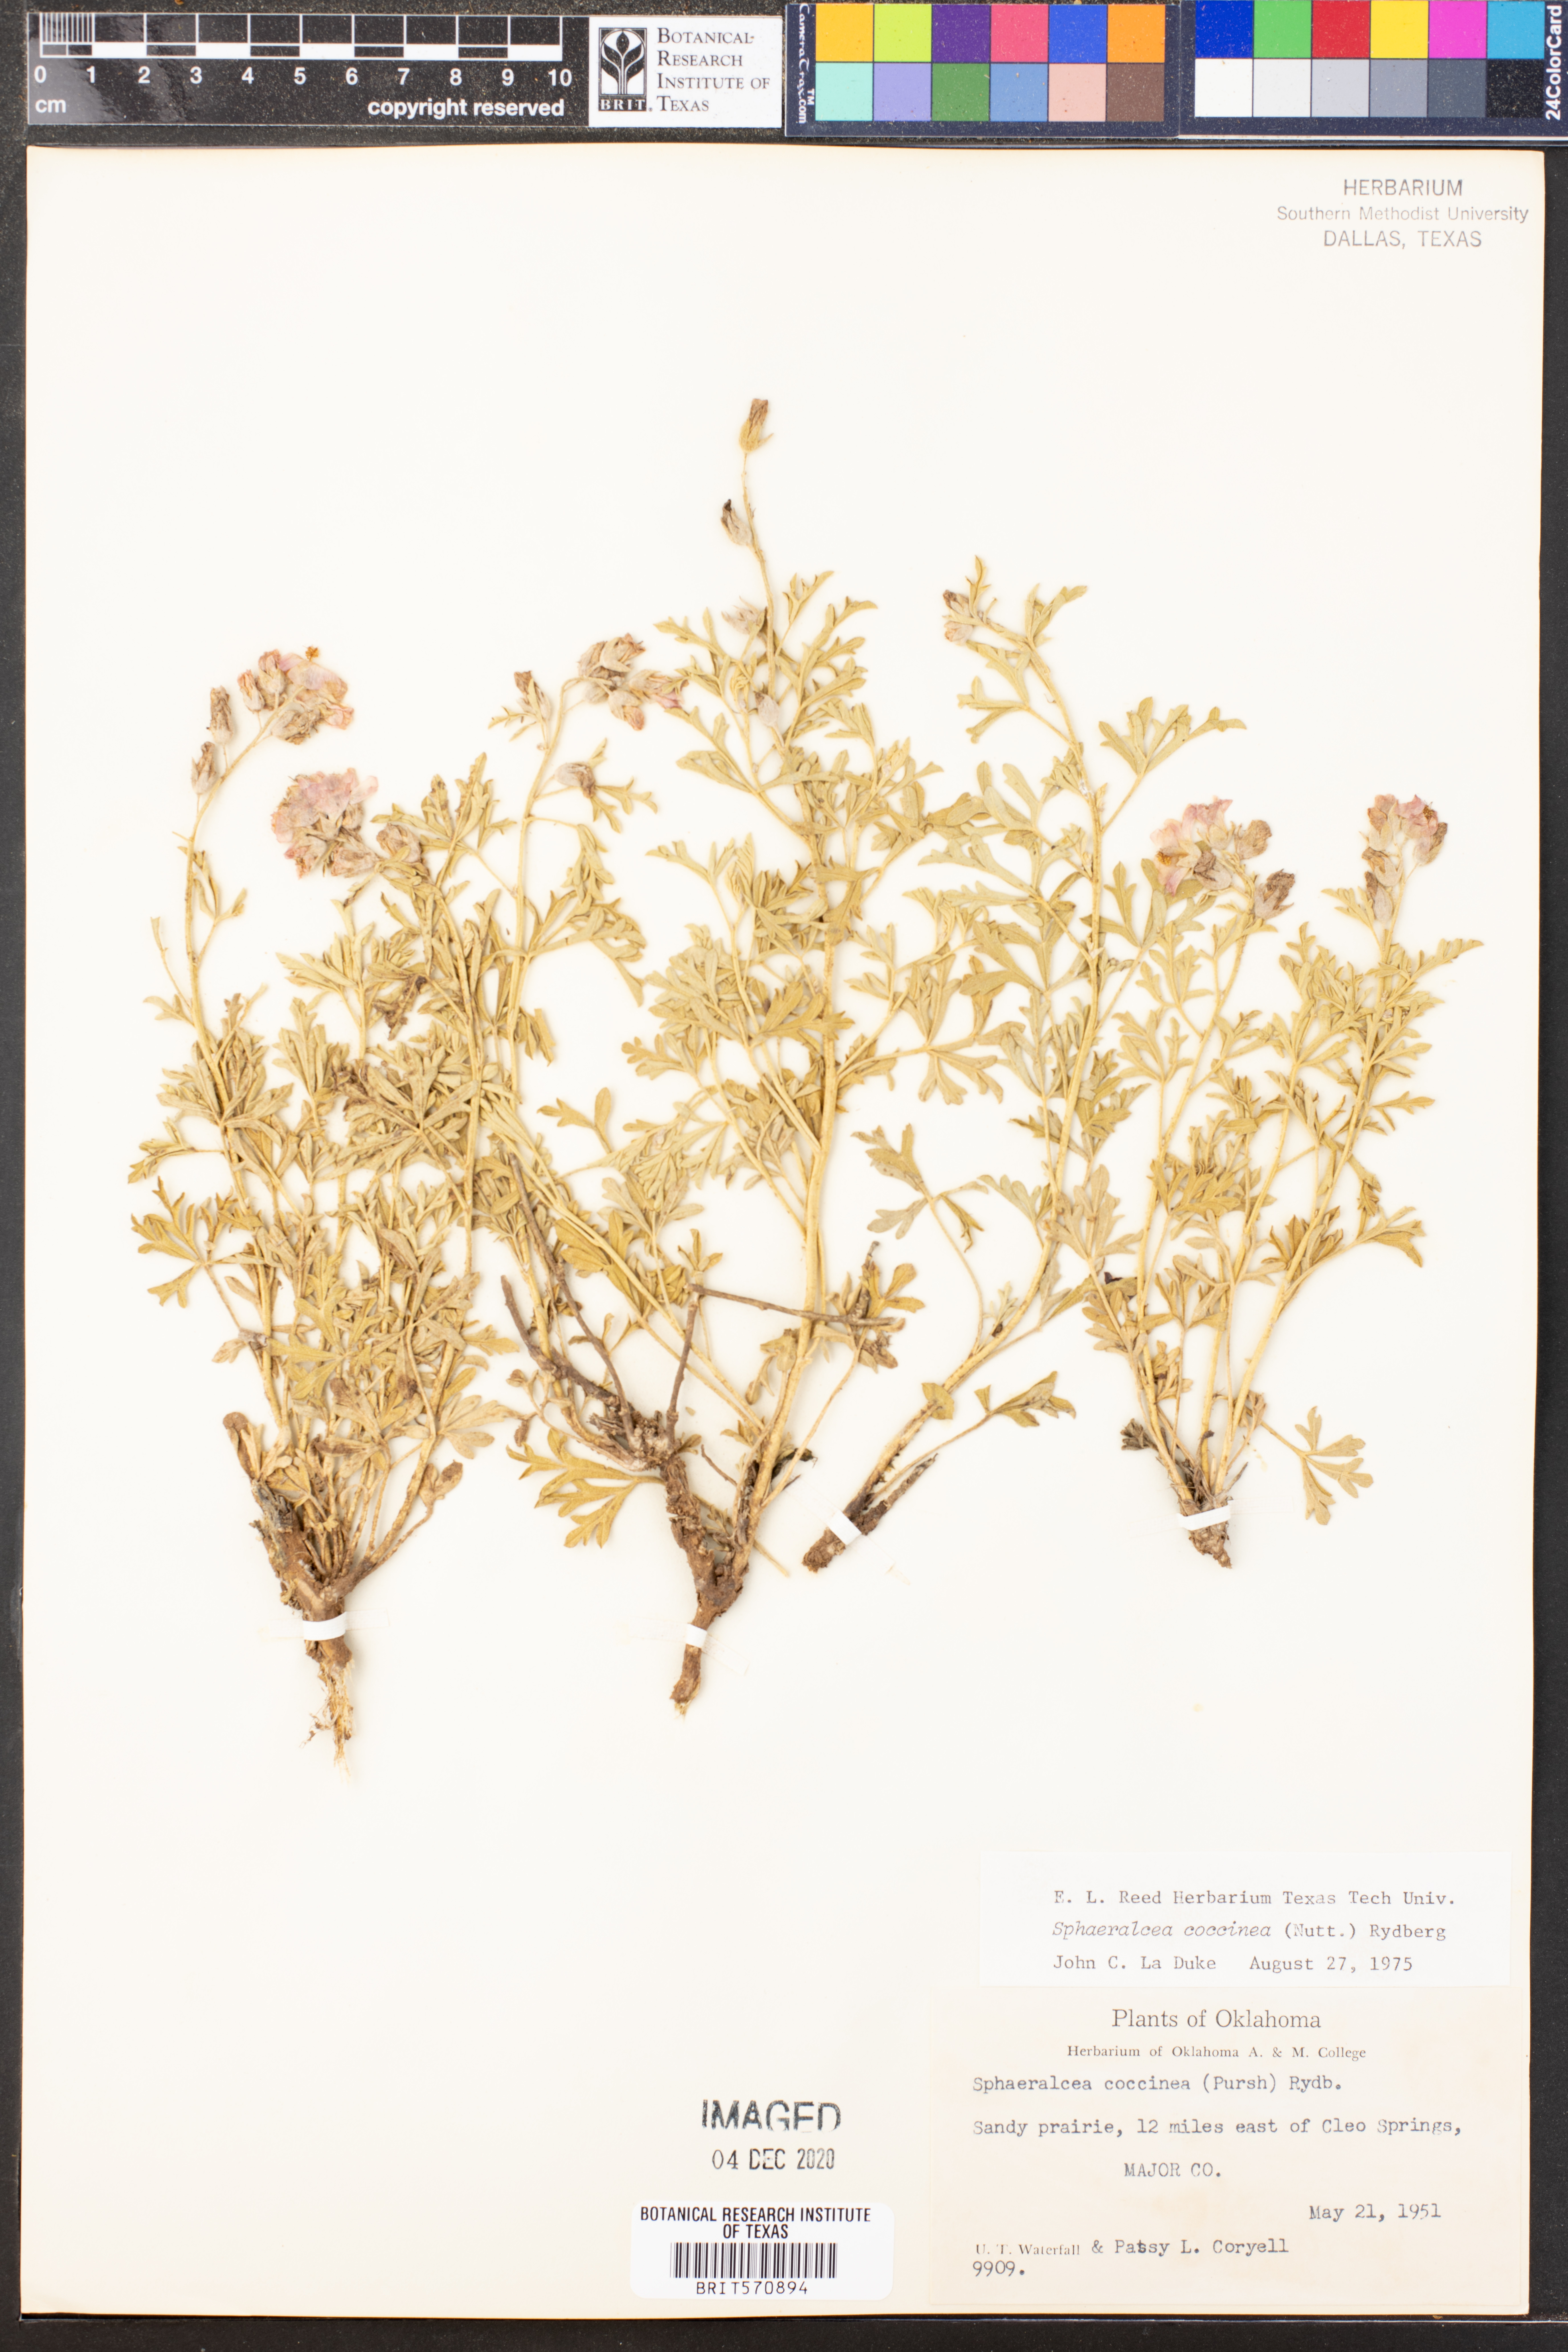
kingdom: Plantae
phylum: Tracheophyta
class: Magnoliopsida
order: Malvales
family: Malvaceae
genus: Sphaeralcea
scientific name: Sphaeralcea coccinea
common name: Moss-rose
